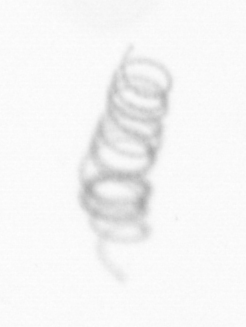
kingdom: Chromista
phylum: Ochrophyta
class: Bacillariophyceae
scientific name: Bacillariophyceae
